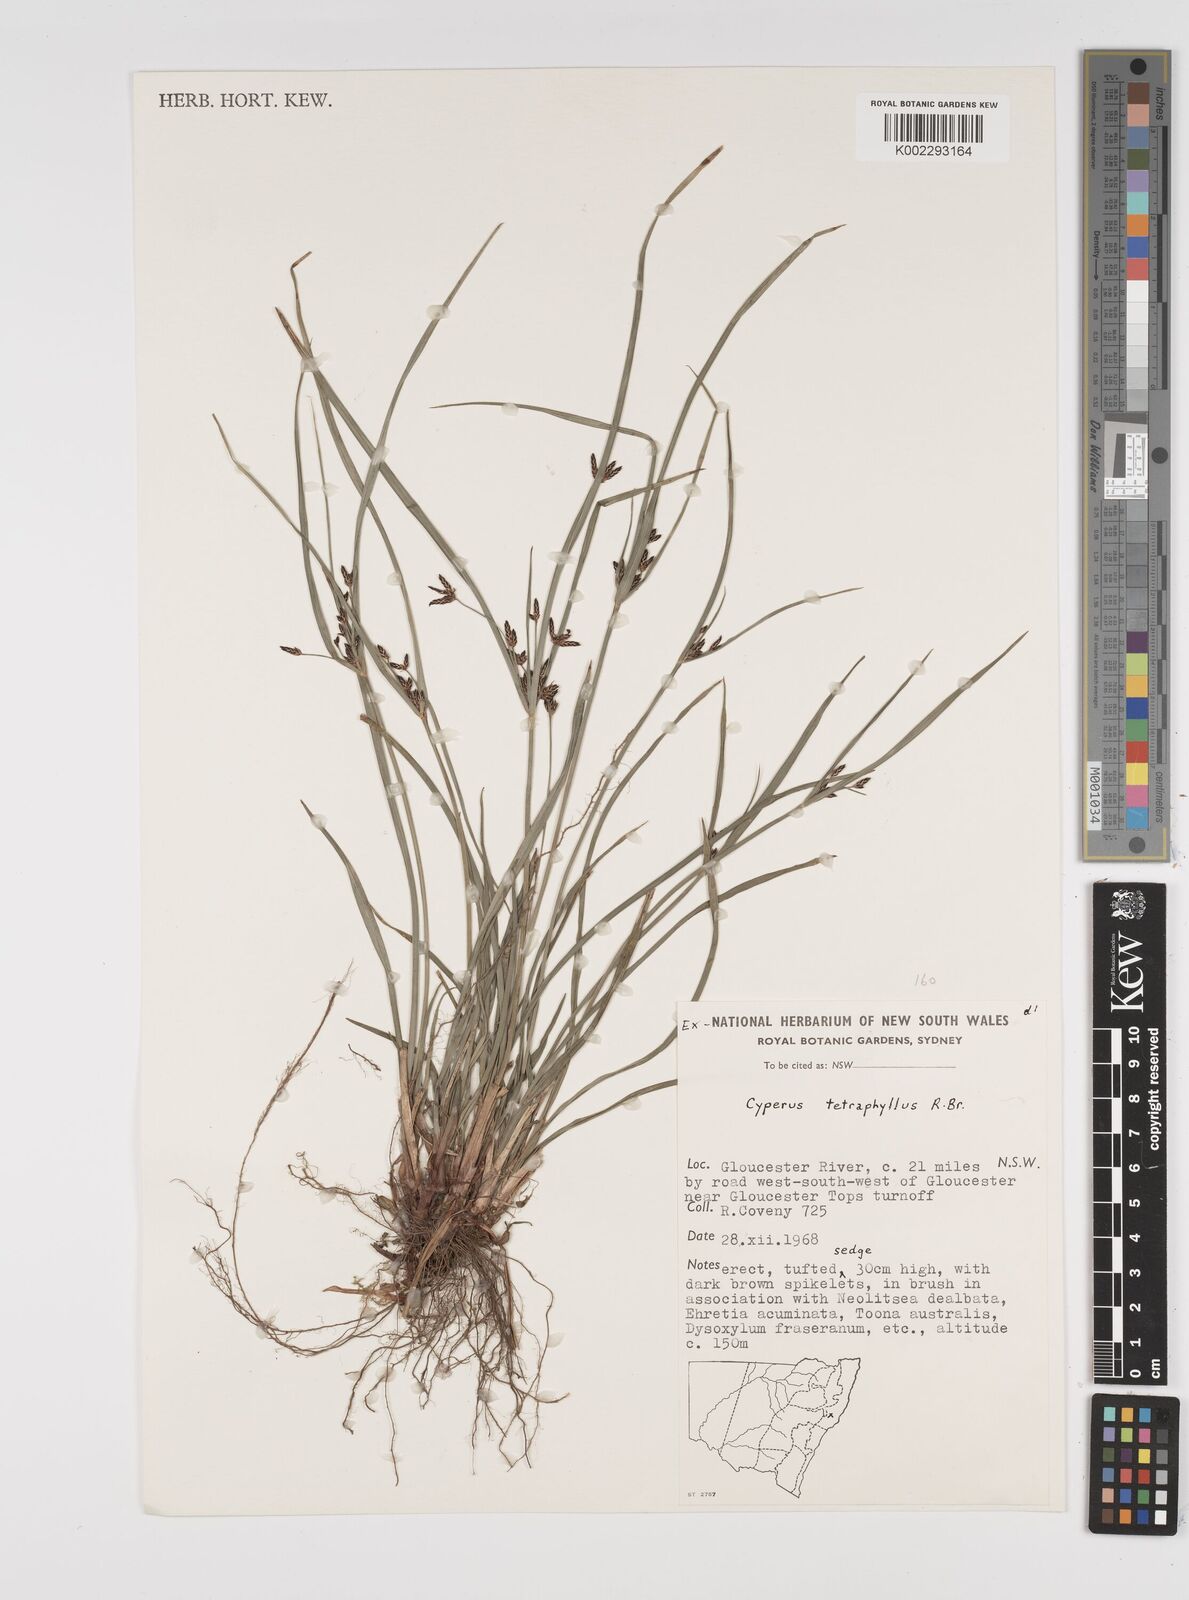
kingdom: Plantae
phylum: Tracheophyta
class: Liliopsida
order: Poales
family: Cyperaceae
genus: Cyperus
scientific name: Cyperus tetraphyllus
